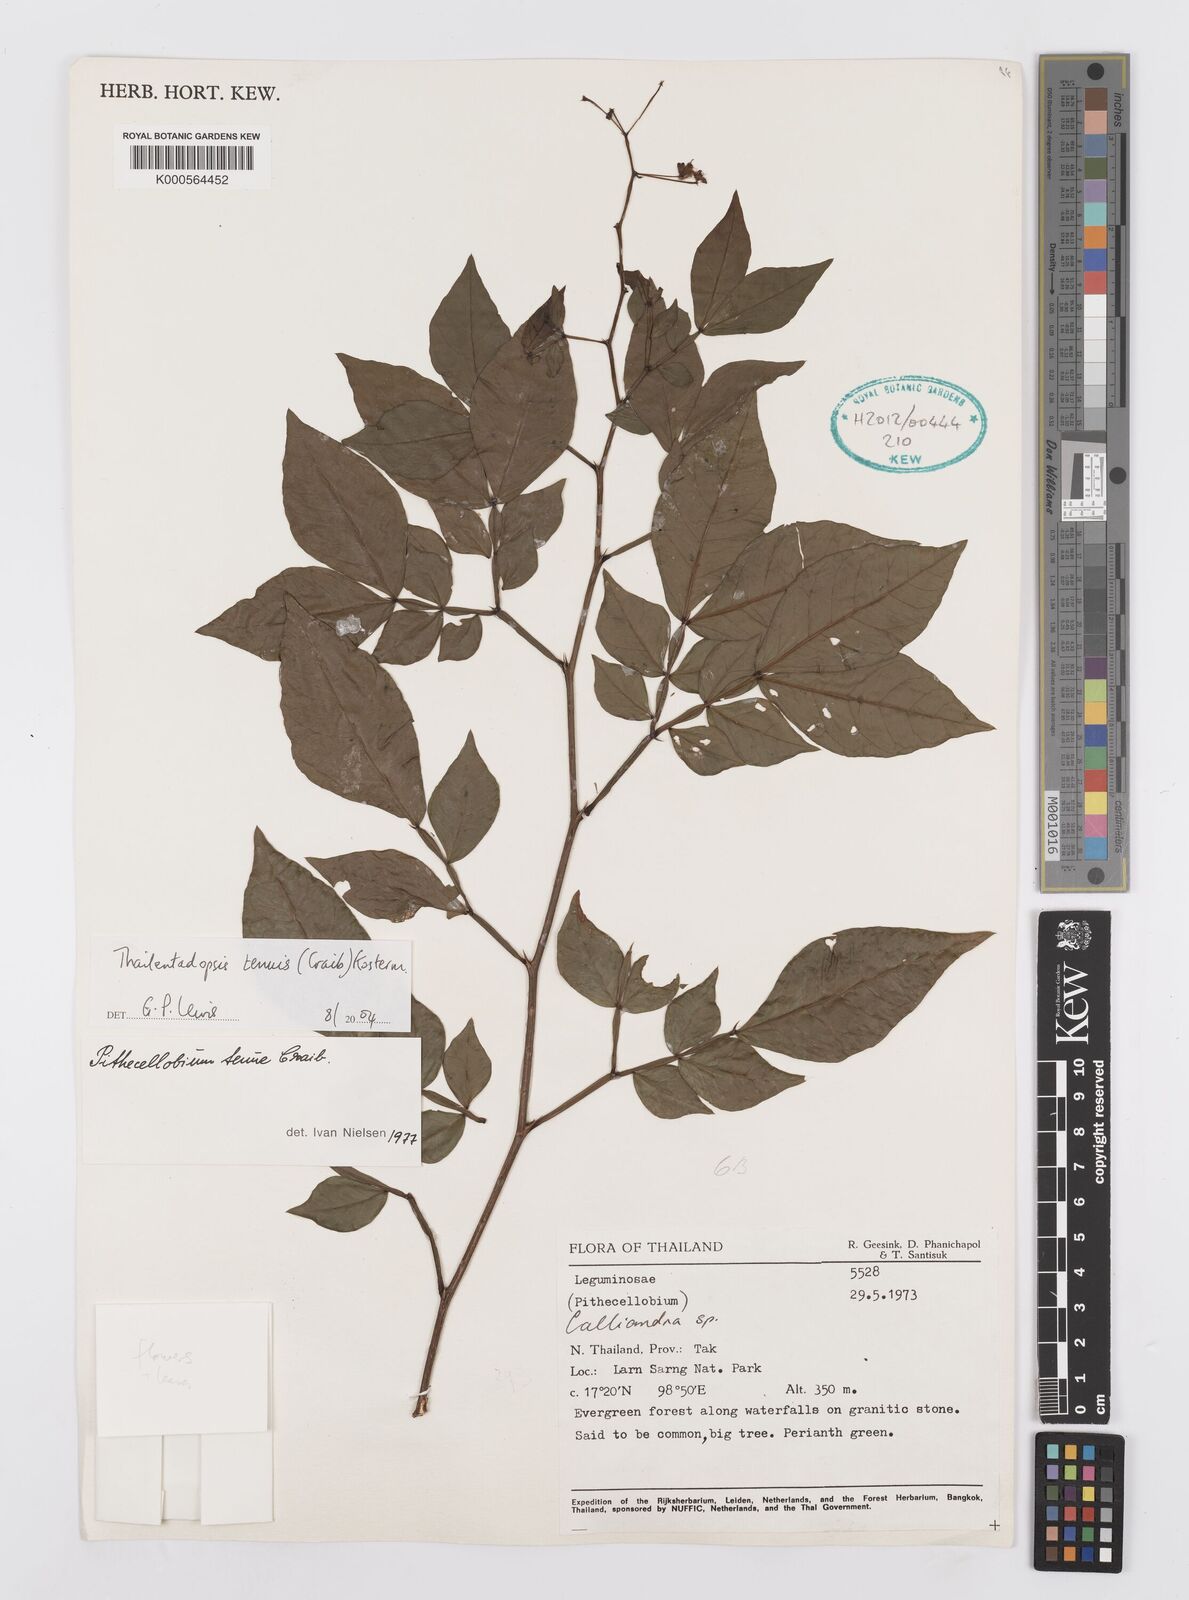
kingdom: Plantae
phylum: Tracheophyta
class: Magnoliopsida
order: Fabales
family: Fabaceae
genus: Thailentadopsis
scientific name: Thailentadopsis tenuis
